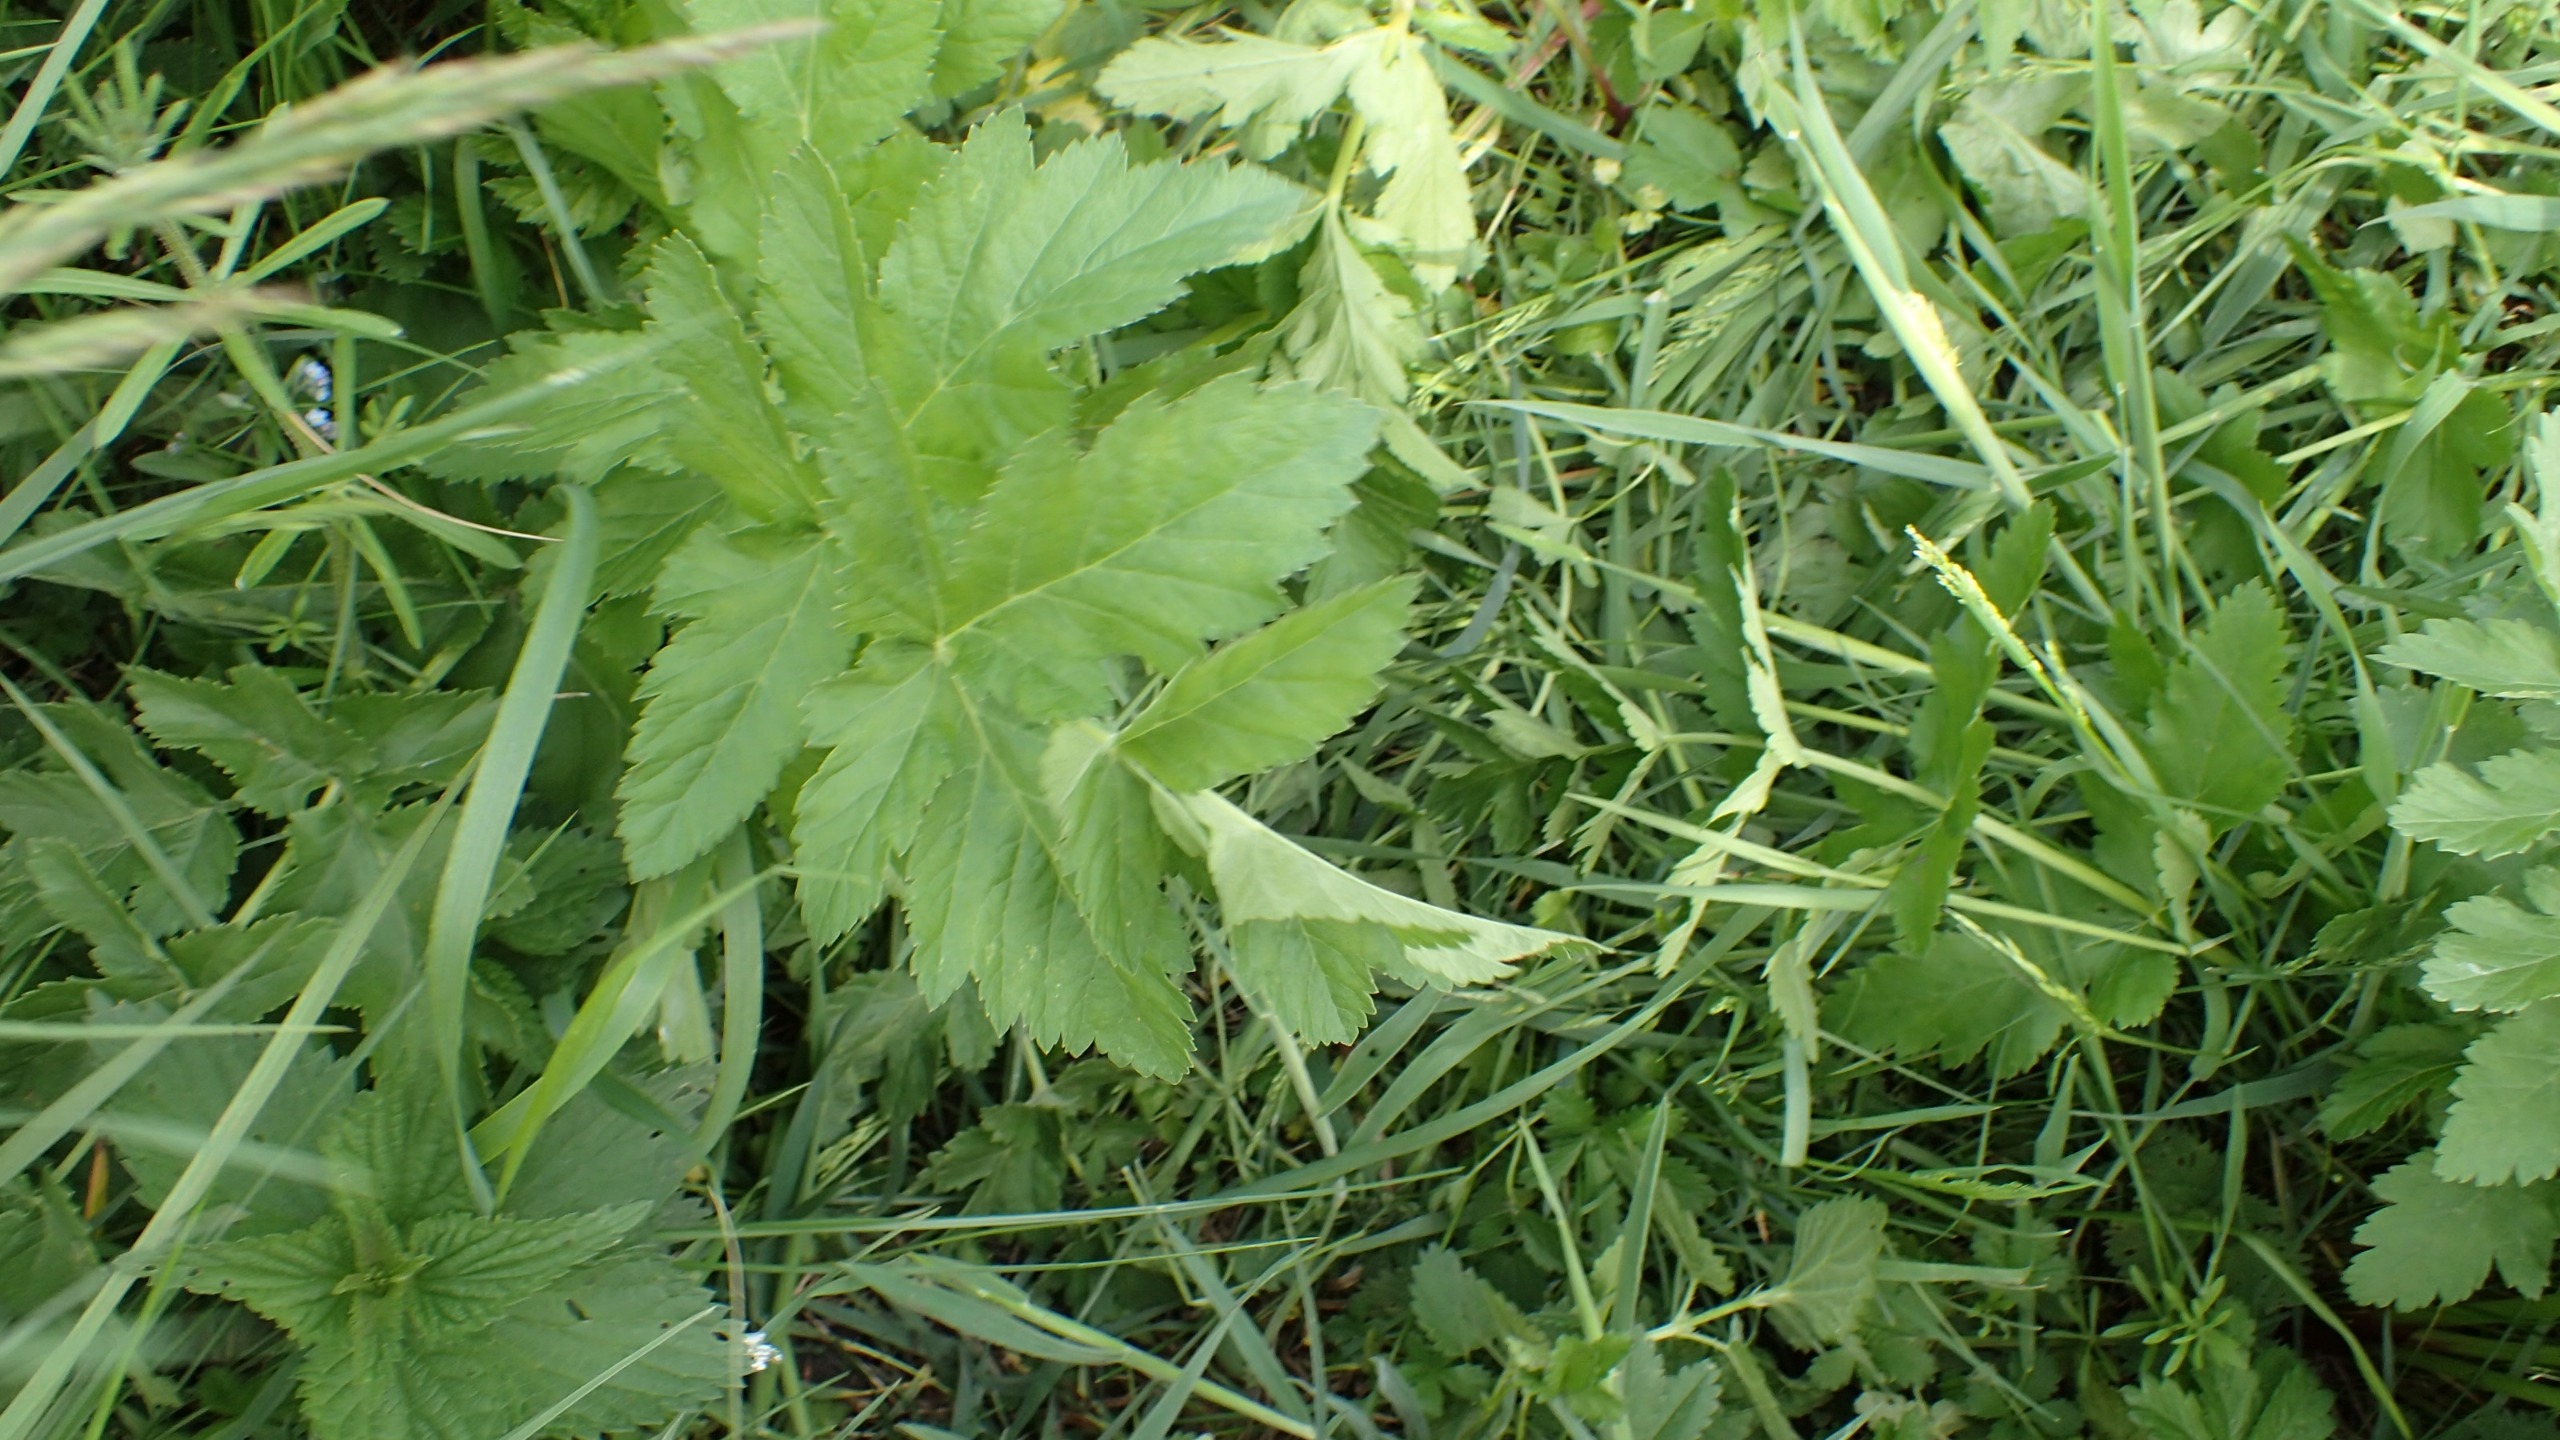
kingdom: Plantae
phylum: Tracheophyta
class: Magnoliopsida
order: Apiales
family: Apiaceae
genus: Pastinaca
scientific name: Pastinaca sativa
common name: Pastinak
